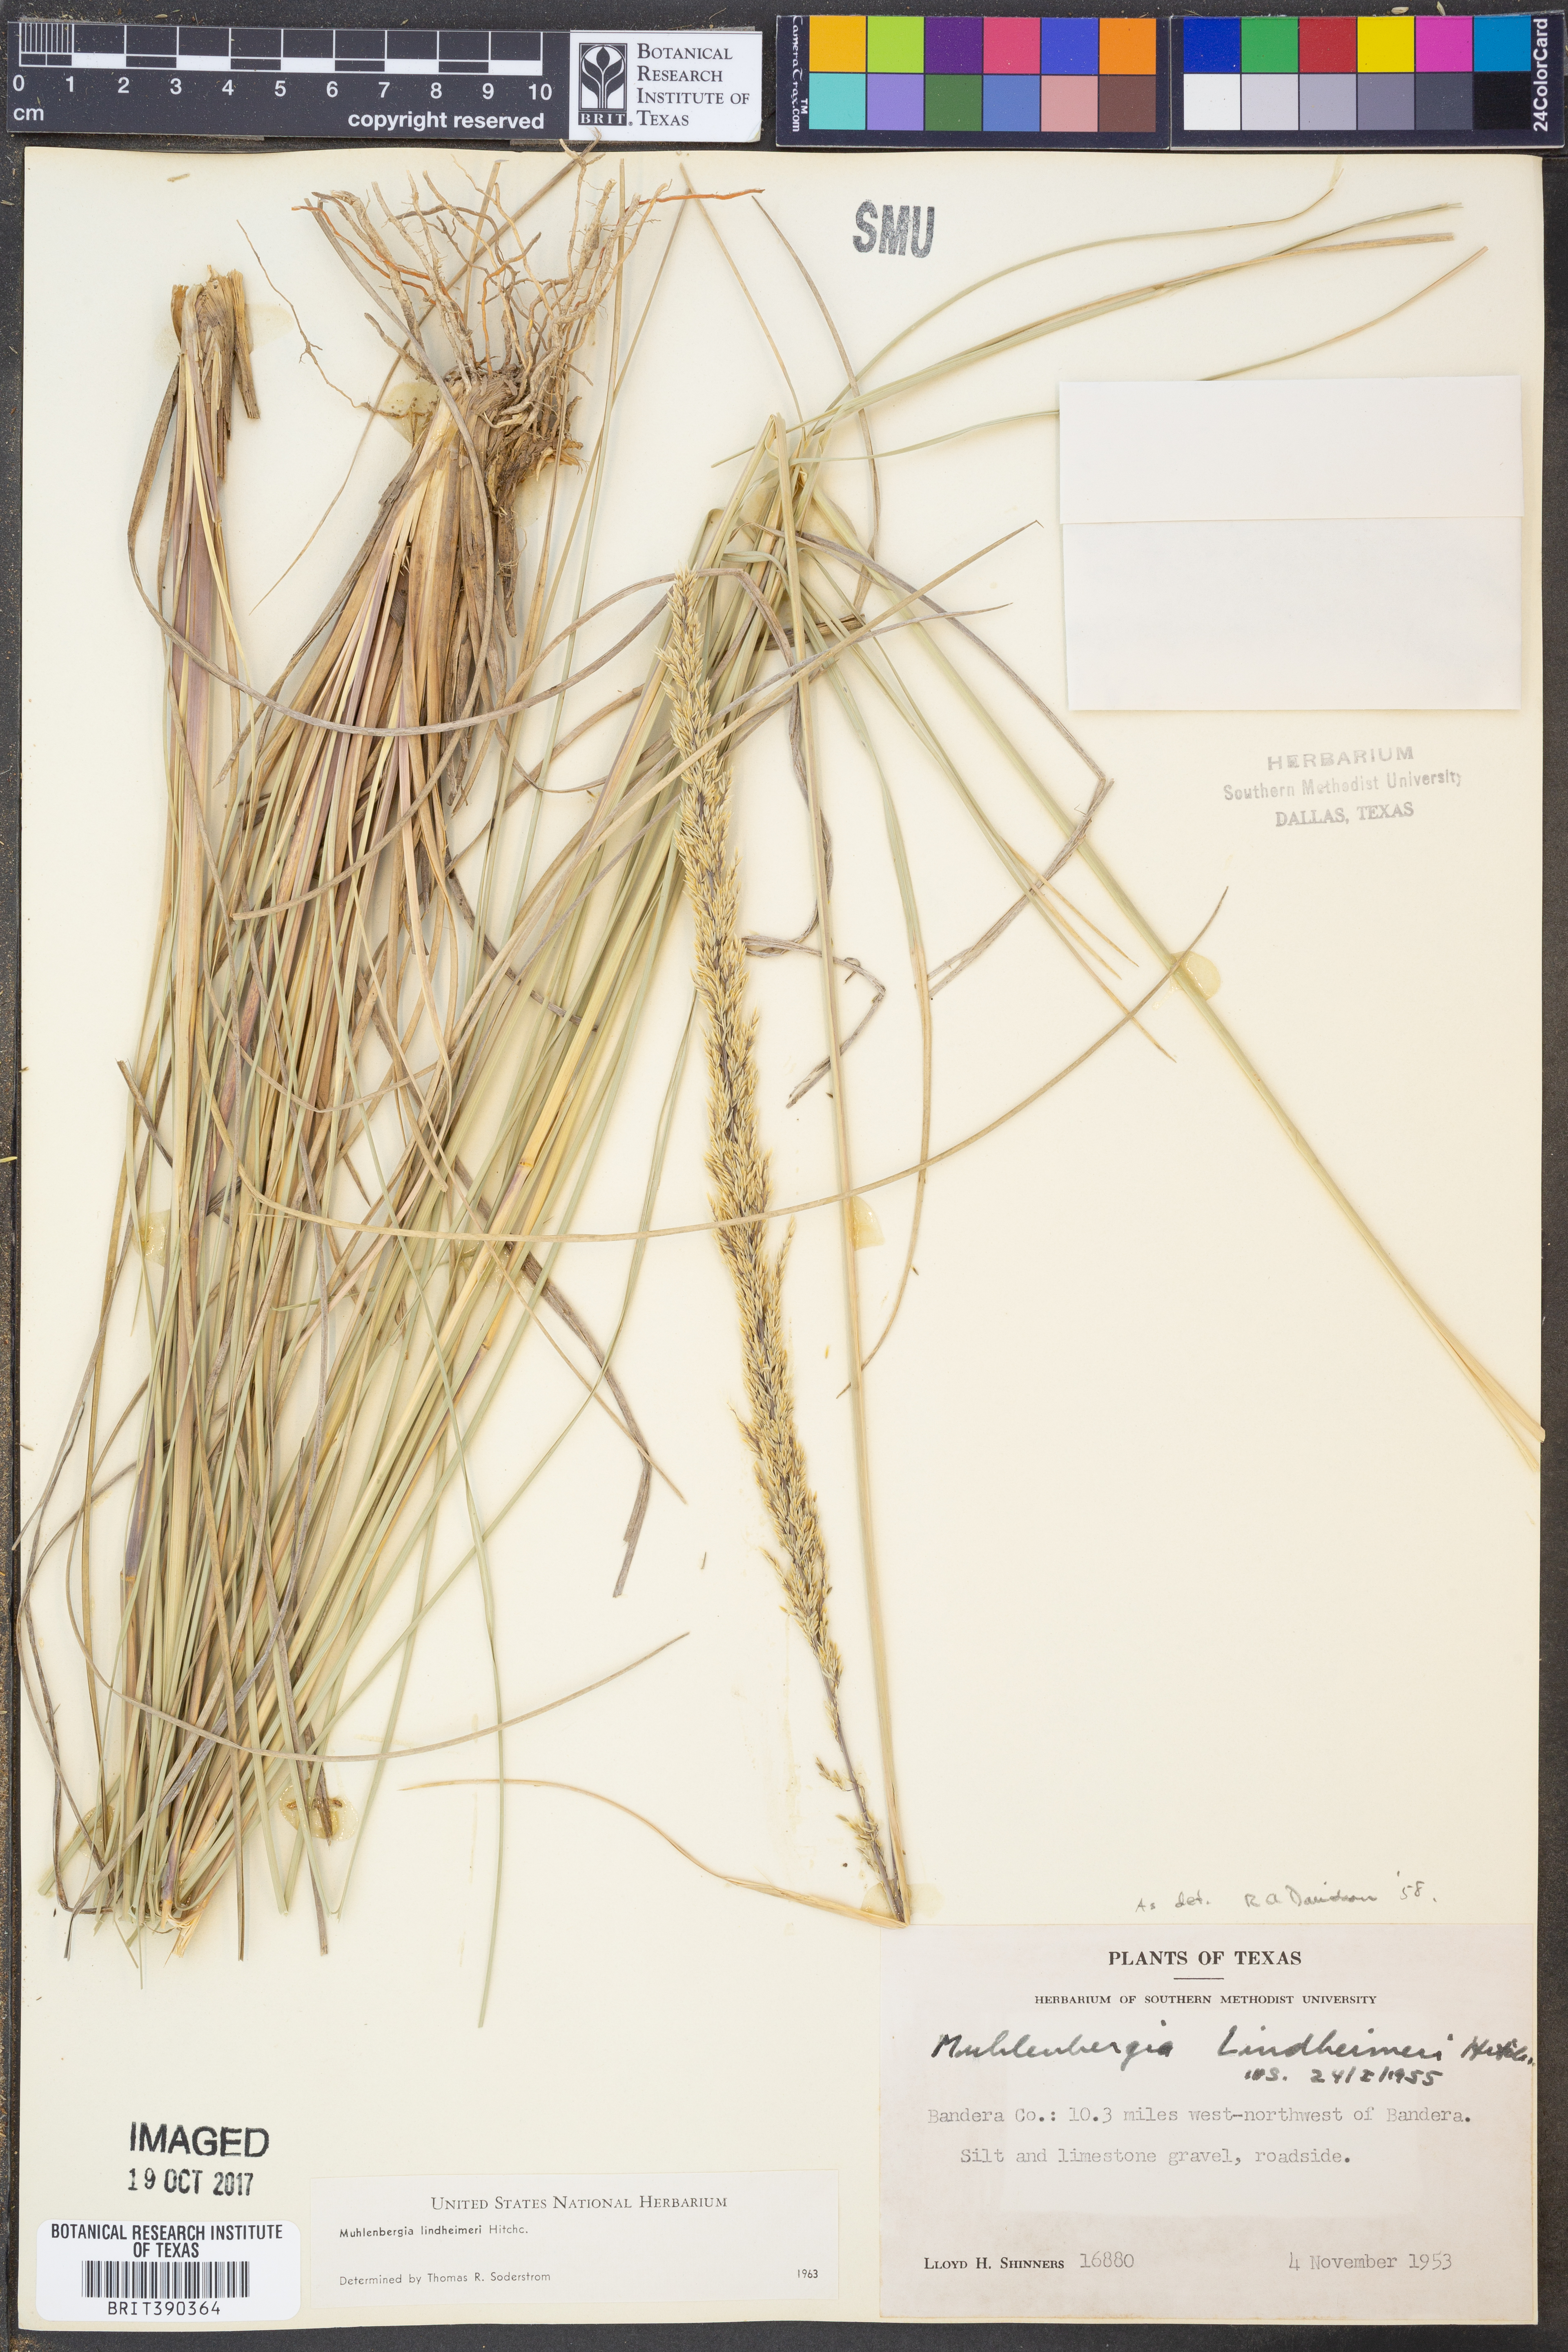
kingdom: Plantae
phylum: Tracheophyta
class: Liliopsida
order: Poales
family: Poaceae
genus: Muhlenbergia
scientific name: Muhlenbergia lindheimeri
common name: Lindheimer's muhly
